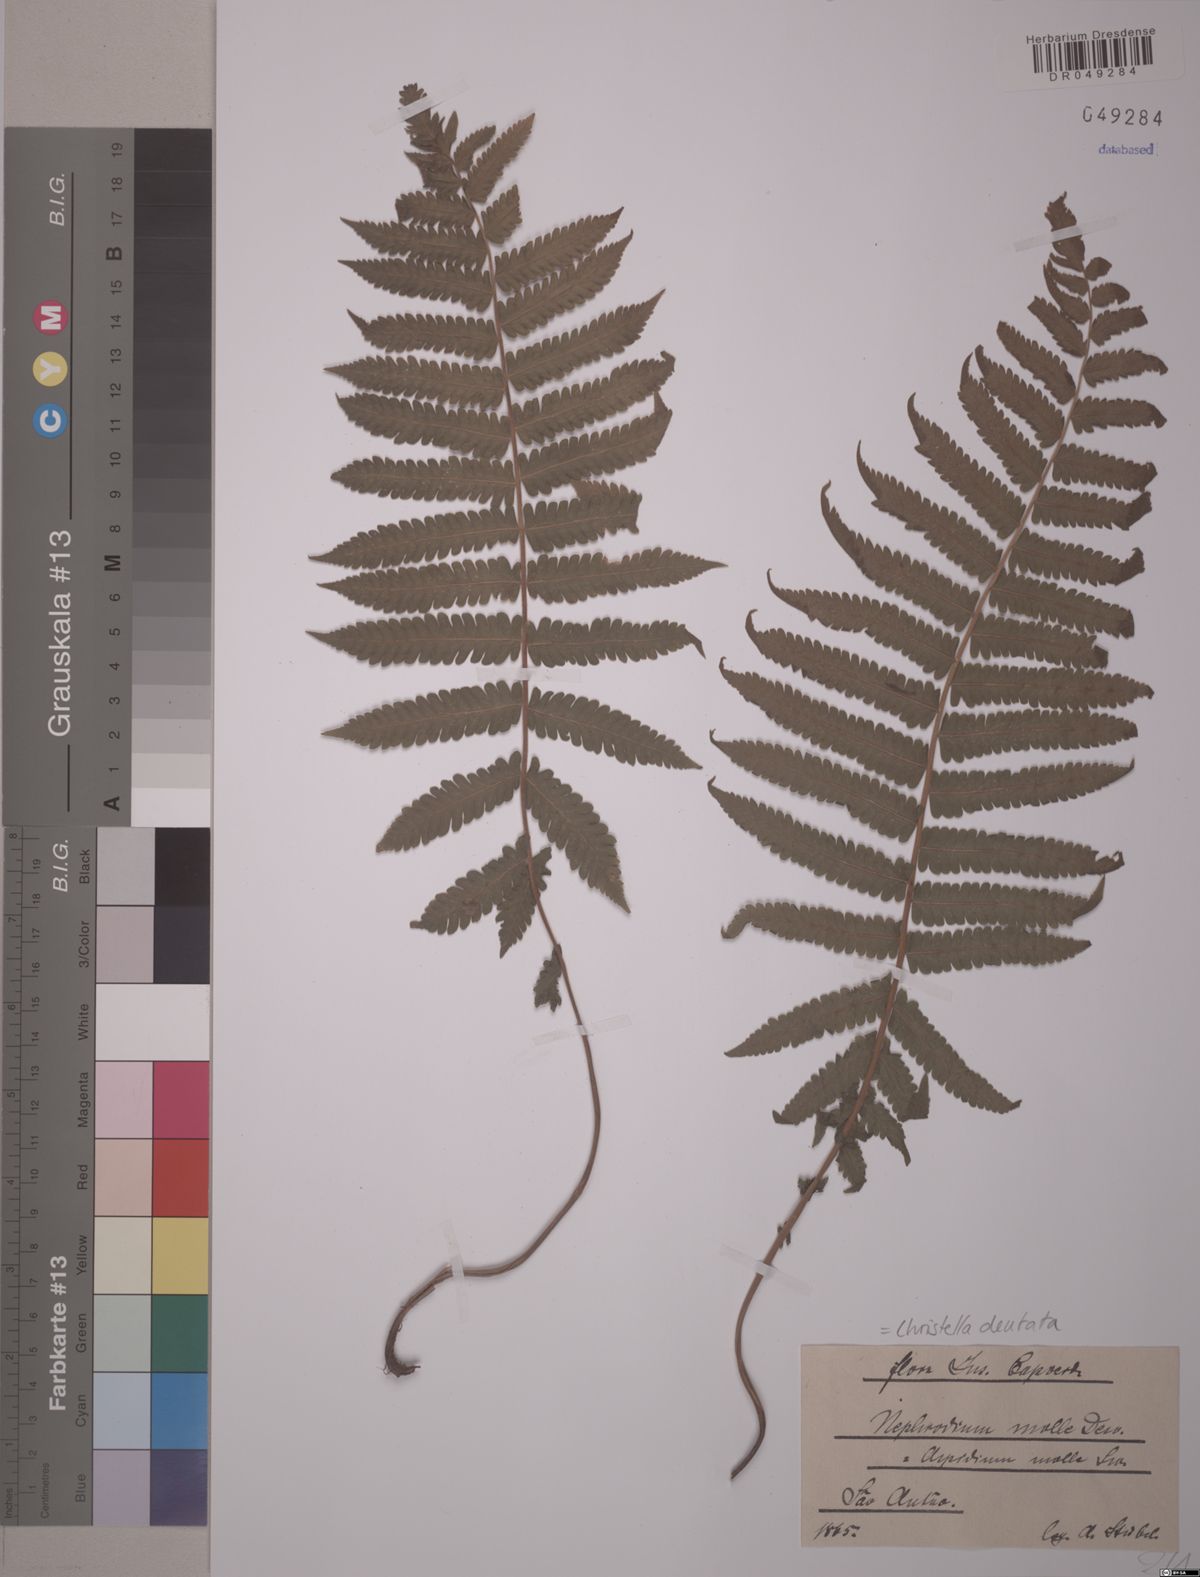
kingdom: Plantae
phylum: Tracheophyta
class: Polypodiopsida
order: Polypodiales
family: Thelypteridaceae
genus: Christella
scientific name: Christella dentata
